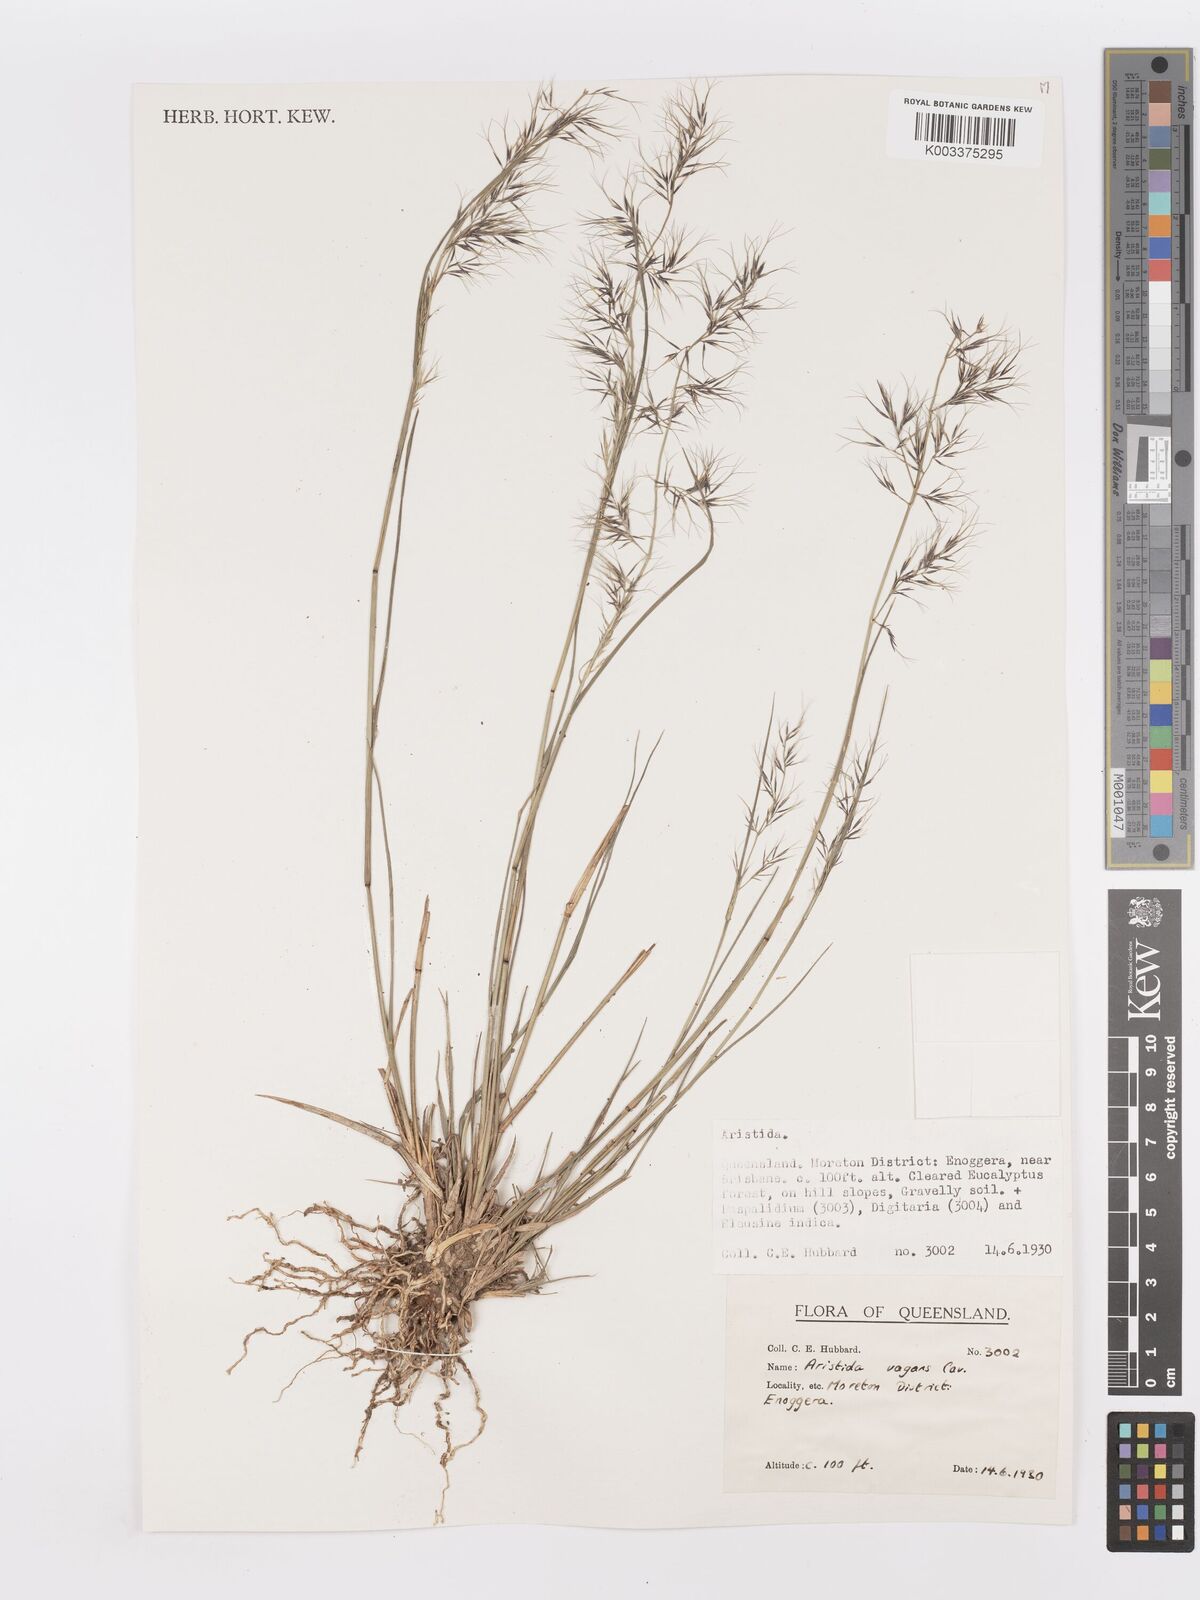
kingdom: Plantae
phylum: Tracheophyta
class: Liliopsida
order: Poales
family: Poaceae
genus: Aristida
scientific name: Aristida vagans
